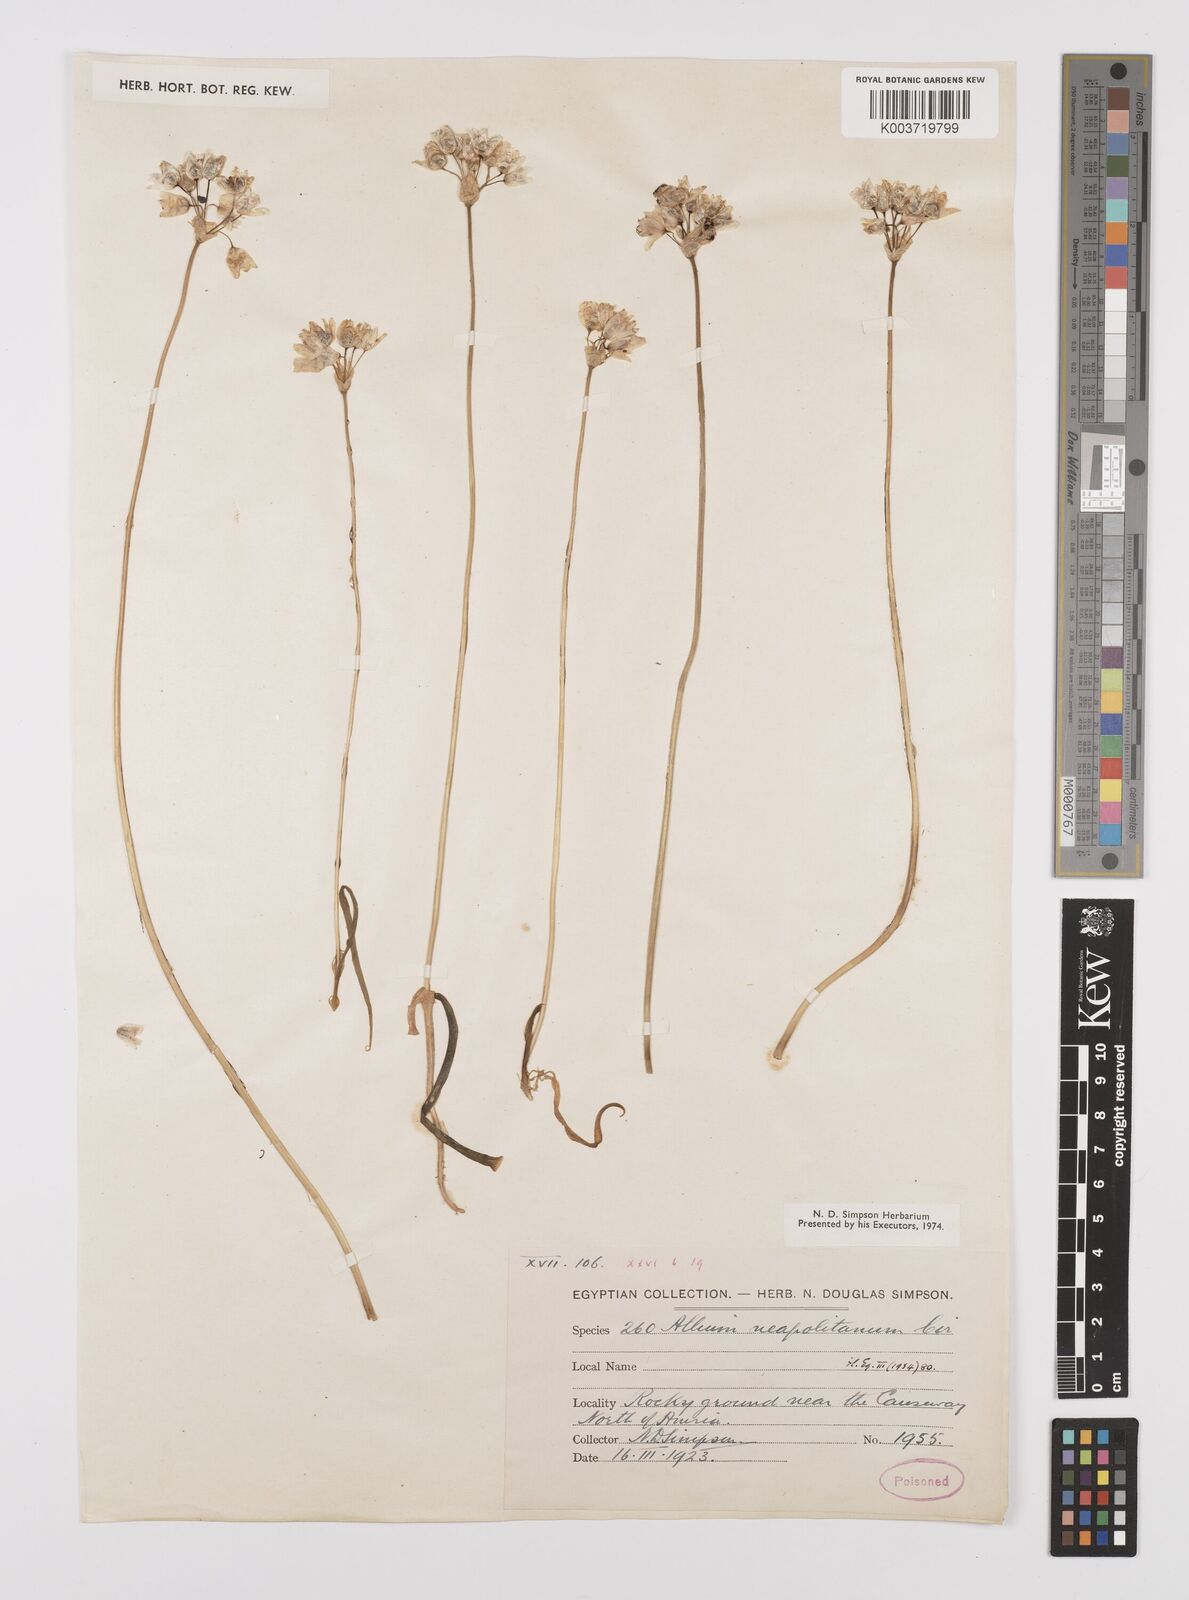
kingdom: Plantae
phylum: Tracheophyta
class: Liliopsida
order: Asparagales
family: Amaryllidaceae
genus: Allium
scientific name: Allium neapolitanum
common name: Neapolitan garlic
